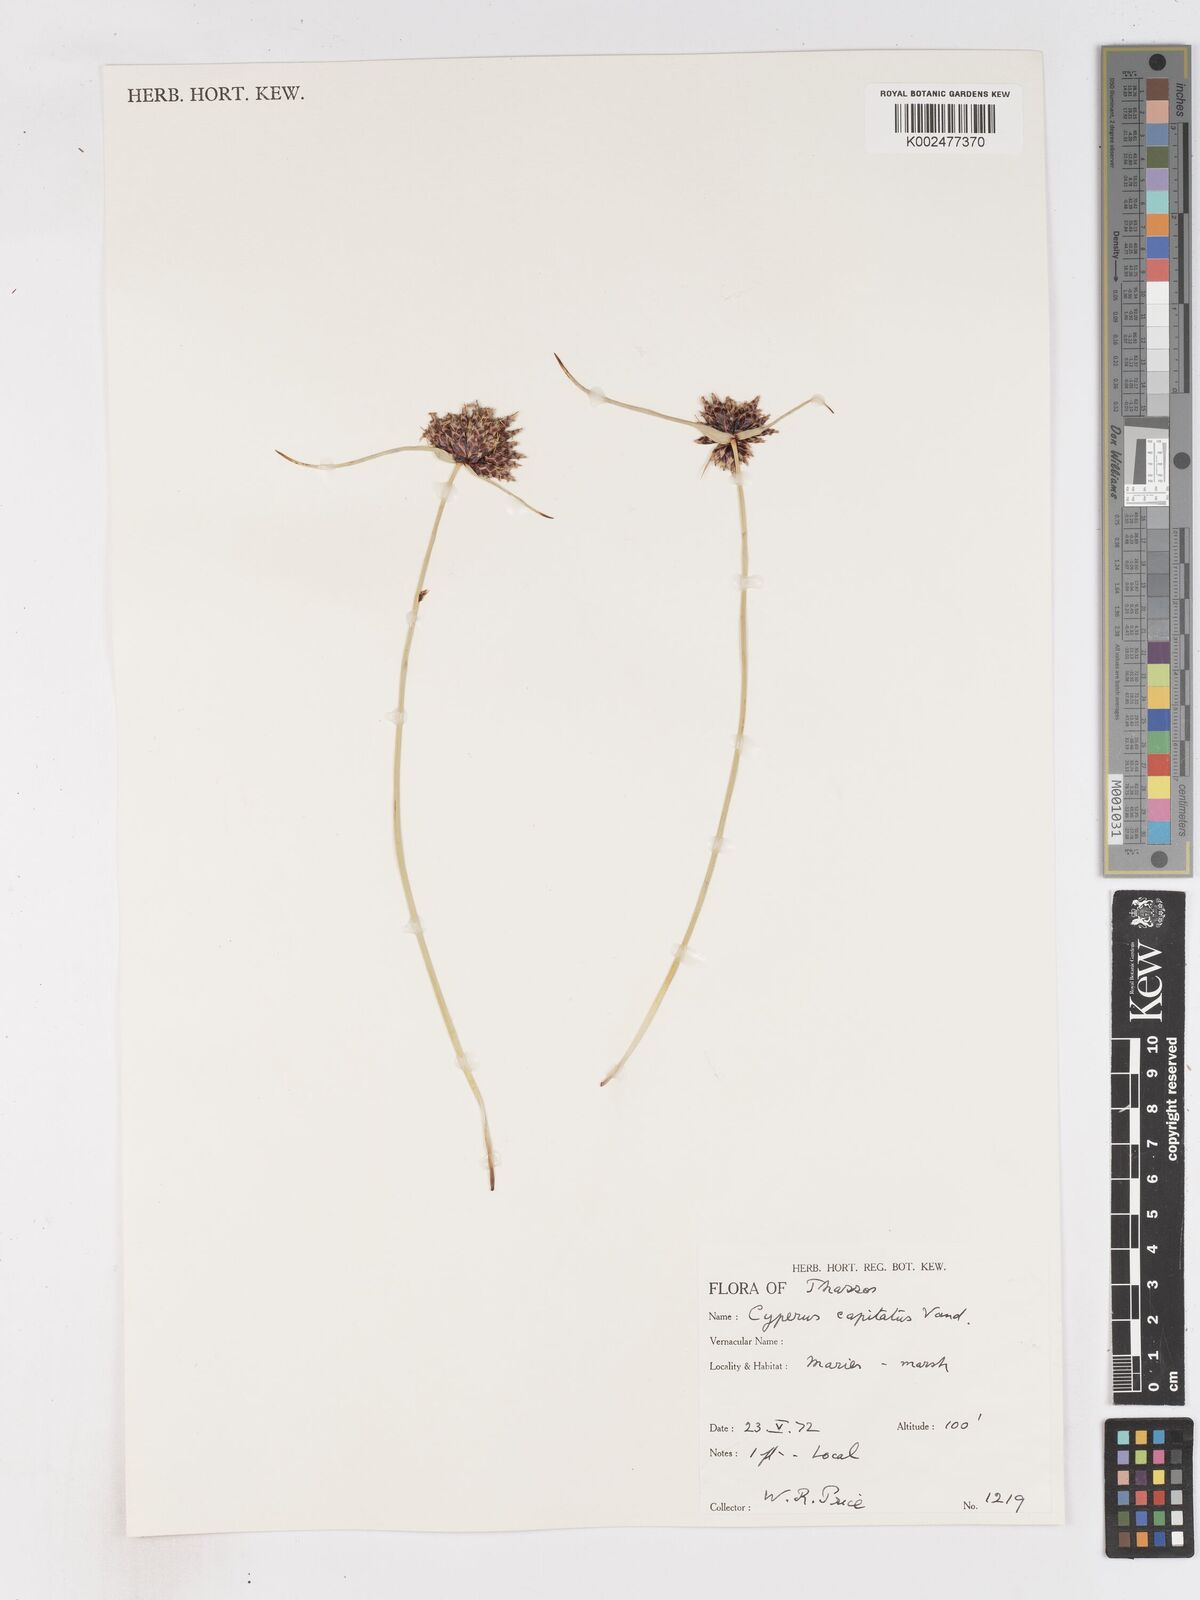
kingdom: Plantae
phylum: Tracheophyta
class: Liliopsida
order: Poales
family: Cyperaceae
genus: Cyperus
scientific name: Cyperus capitatus
